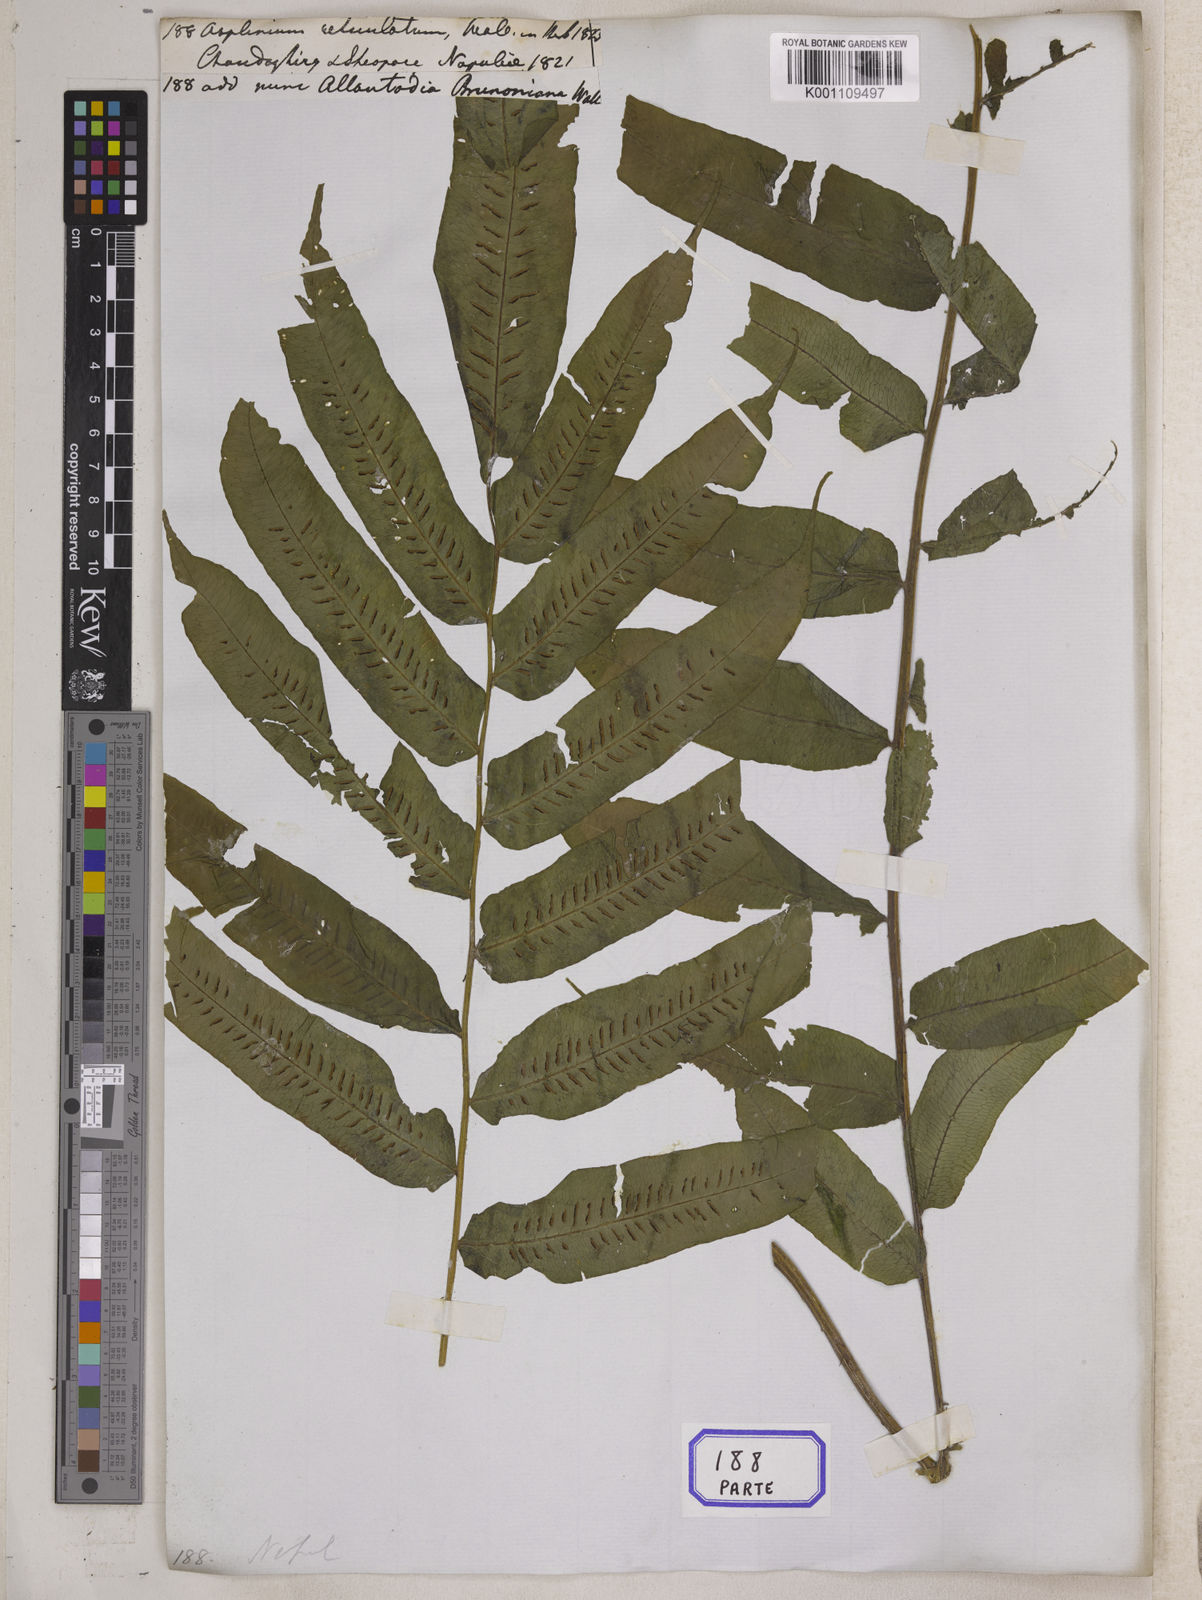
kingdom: Plantae
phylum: Tracheophyta
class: Polypodiopsida
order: Polypodiales
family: Diplaziopsidaceae
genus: Diplaziopsis
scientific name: Diplaziopsis javanica
